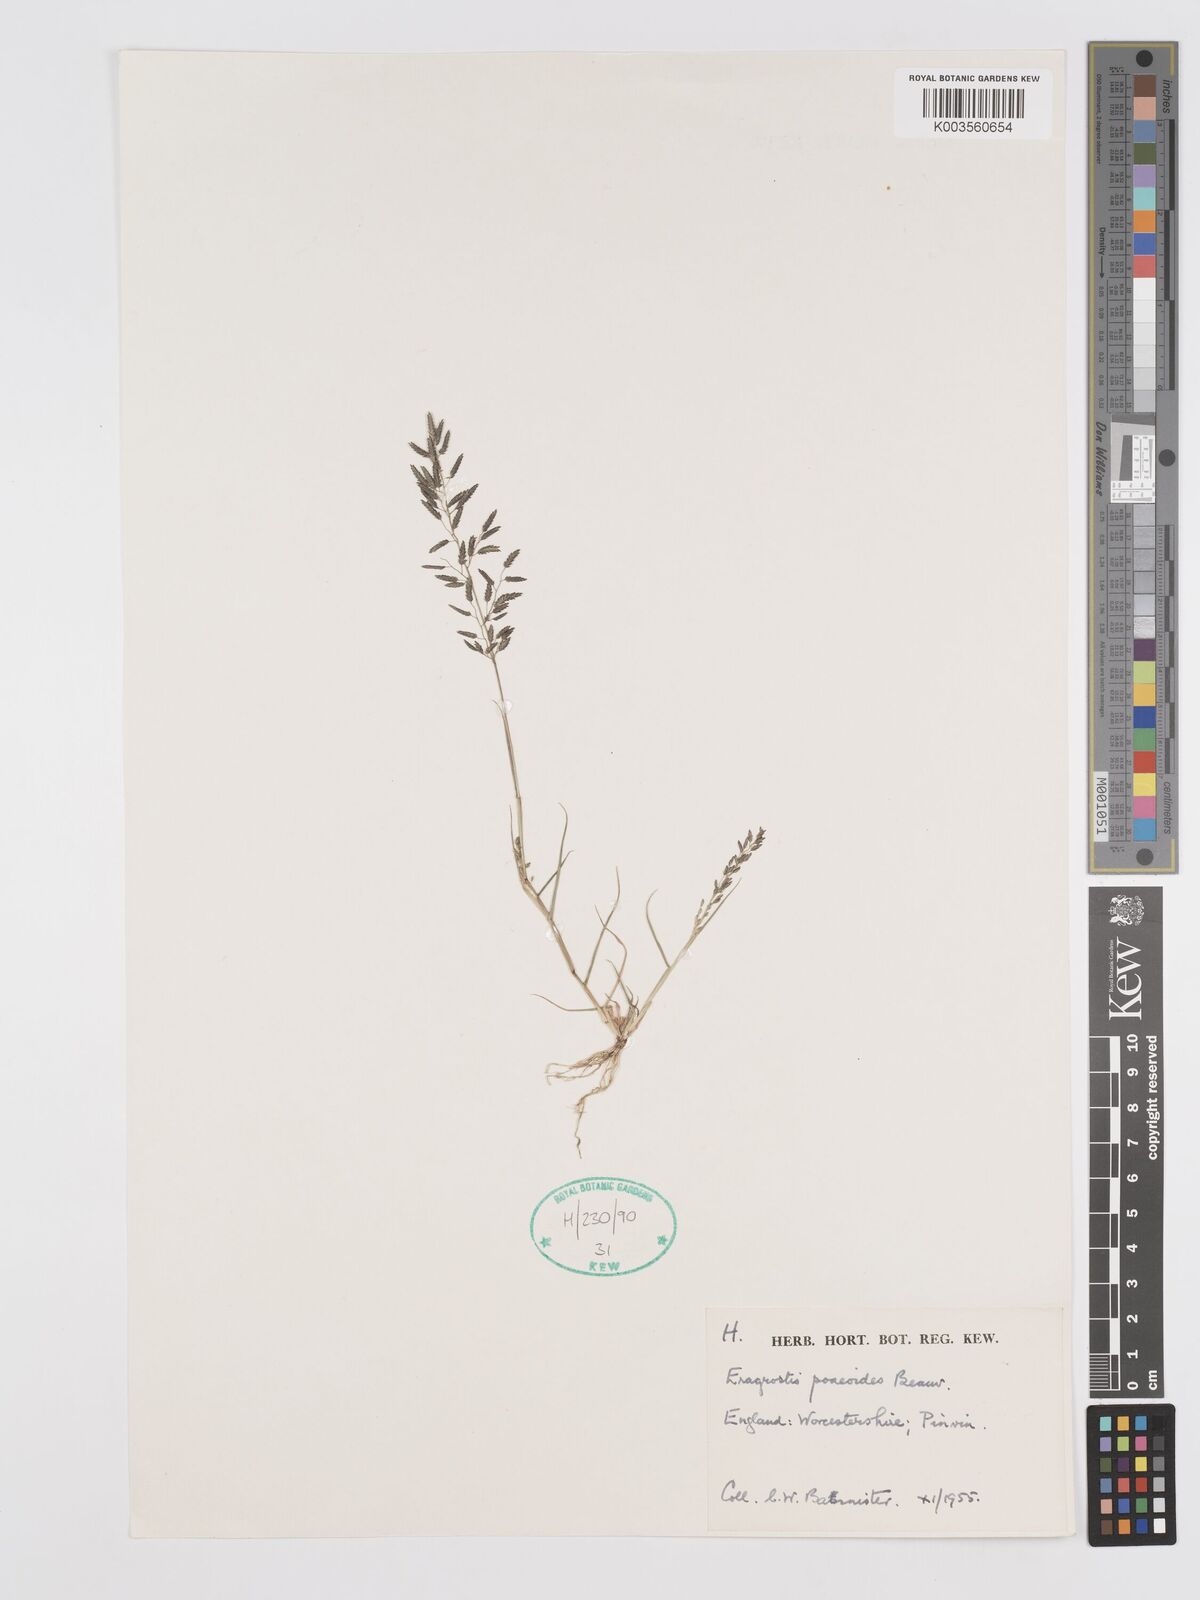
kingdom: Plantae
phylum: Tracheophyta
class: Liliopsida
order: Poales
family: Poaceae
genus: Eragrostis
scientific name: Eragrostis minor
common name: Small love-grass
